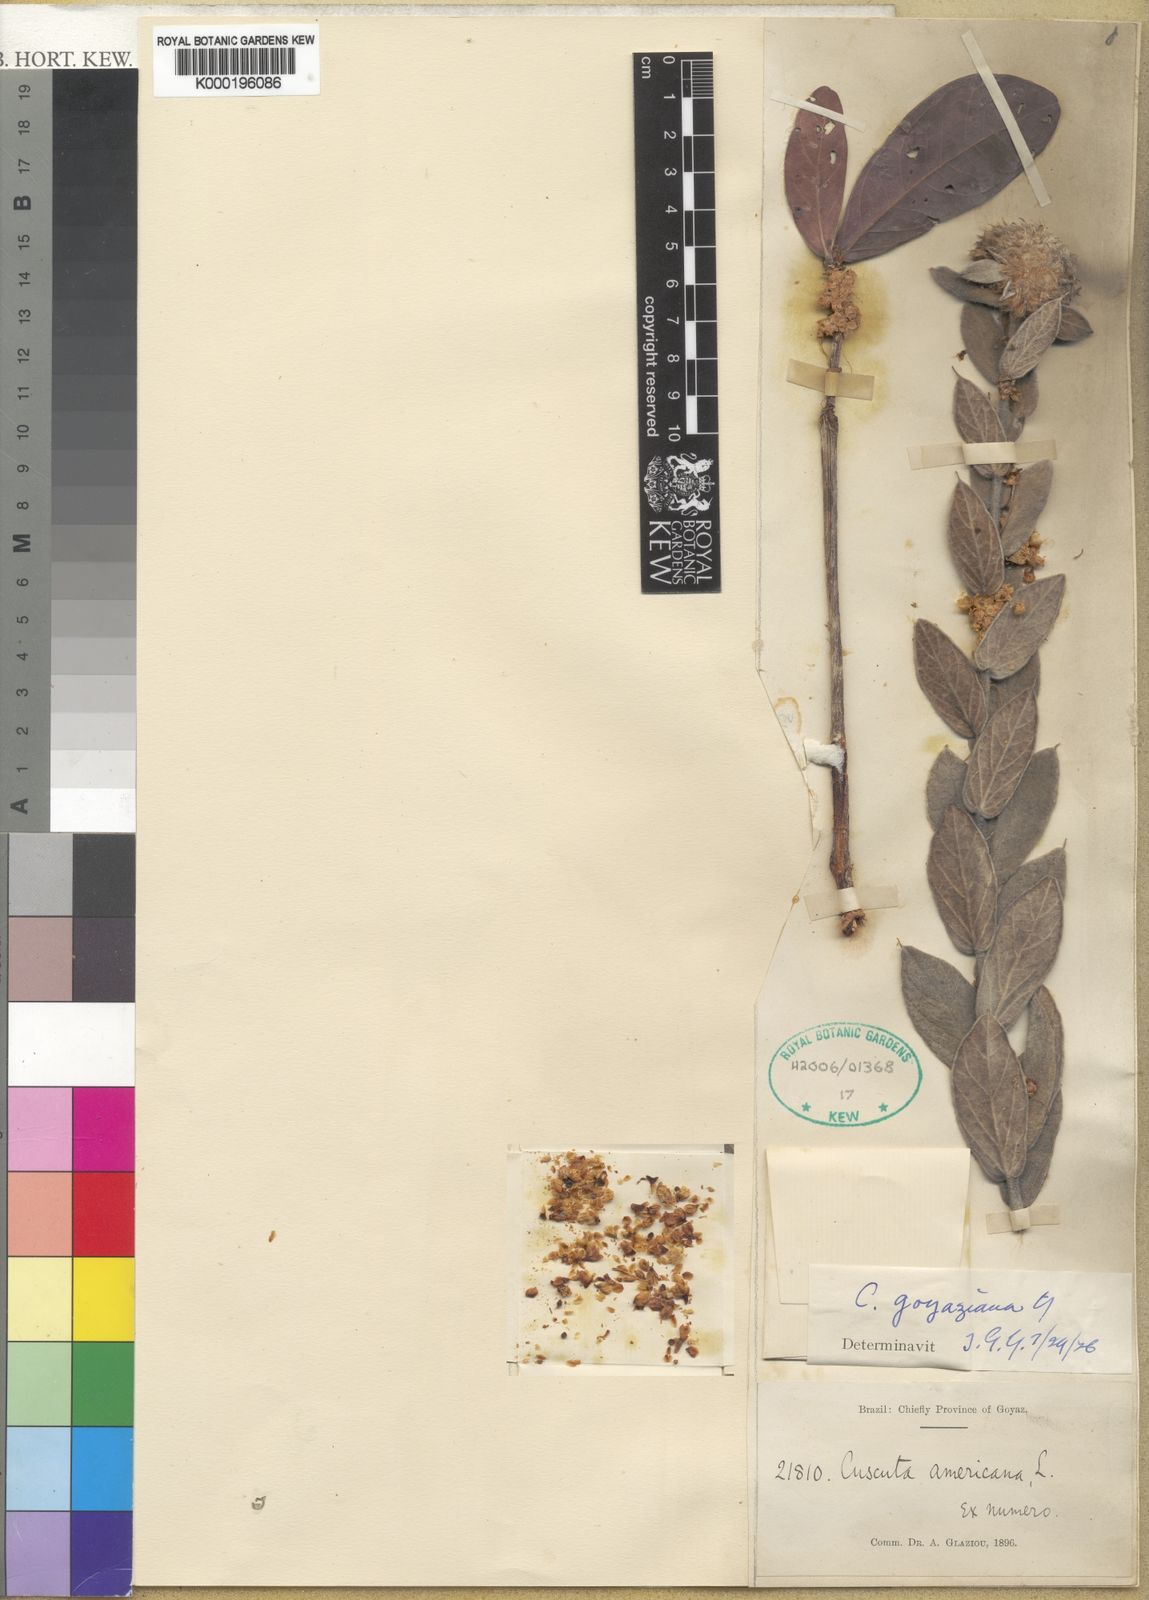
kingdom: Plantae
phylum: Tracheophyta
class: Magnoliopsida
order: Solanales
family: Convolvulaceae
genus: Cuscuta
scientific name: Cuscuta goyaziana
